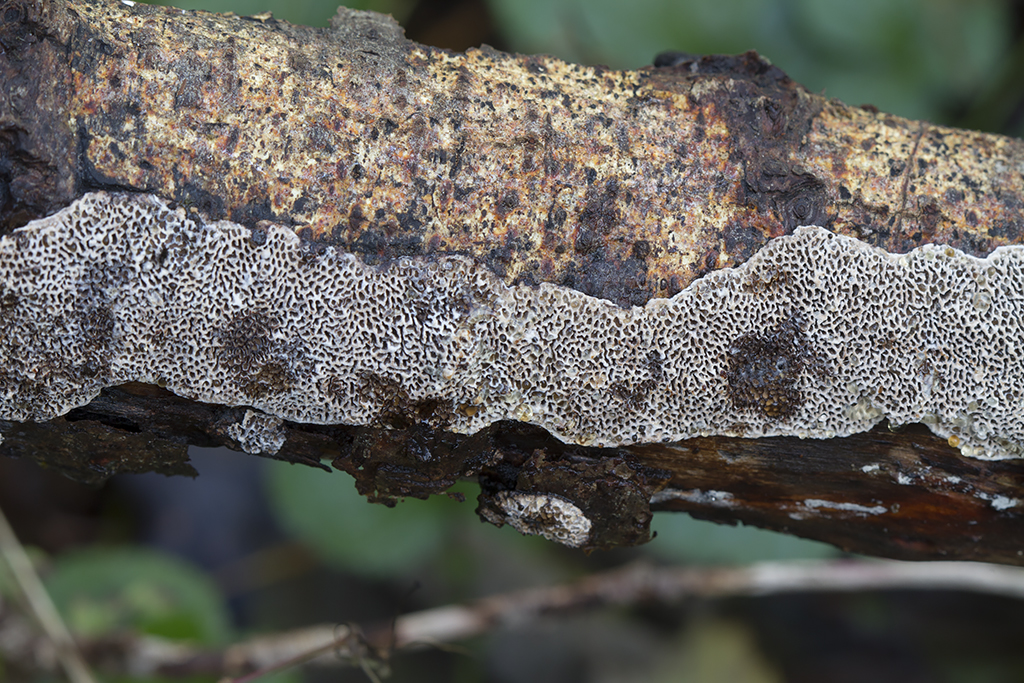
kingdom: Fungi
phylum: Basidiomycota
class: Agaricomycetes
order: Polyporales
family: Polyporaceae
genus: Podofomes
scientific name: Podofomes mollis
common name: blød begporesvamp
